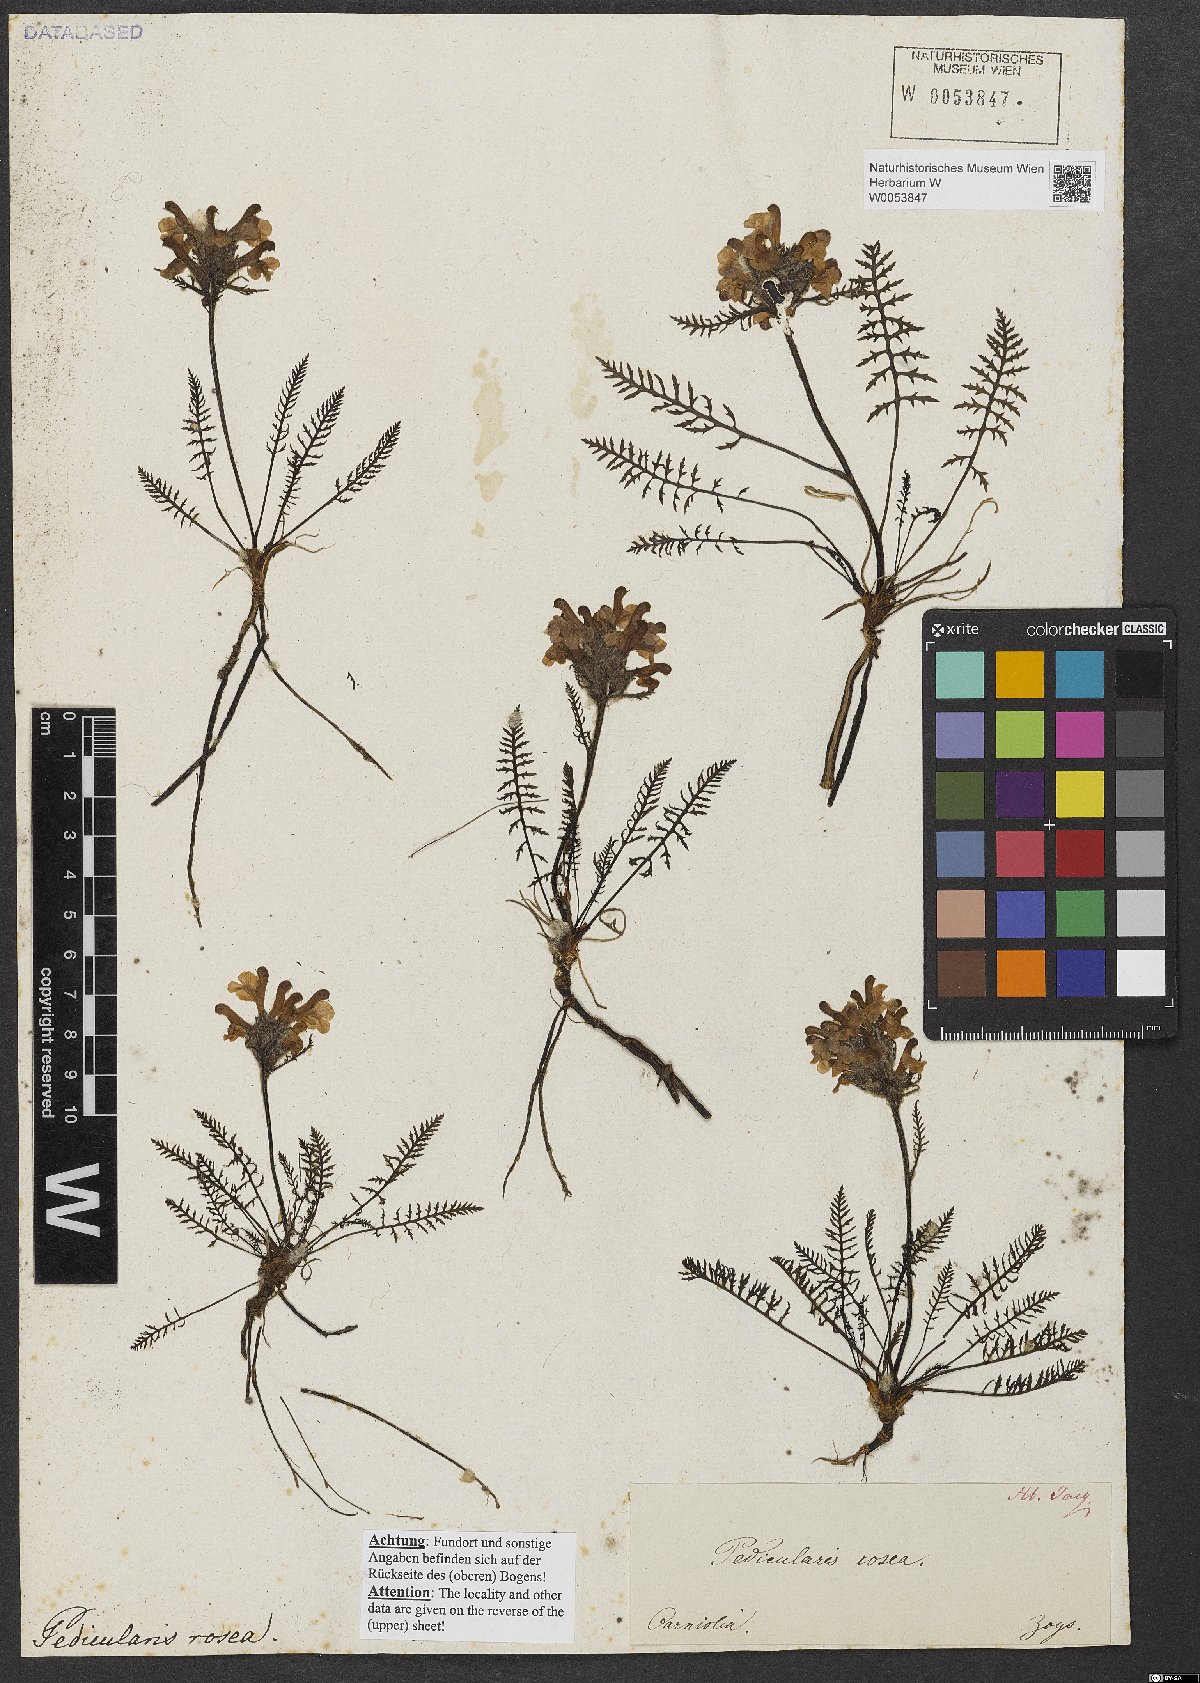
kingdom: Plantae
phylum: Tracheophyta
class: Magnoliopsida
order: Lamiales
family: Orobanchaceae
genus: Pedicularis
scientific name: Pedicularis rosea
